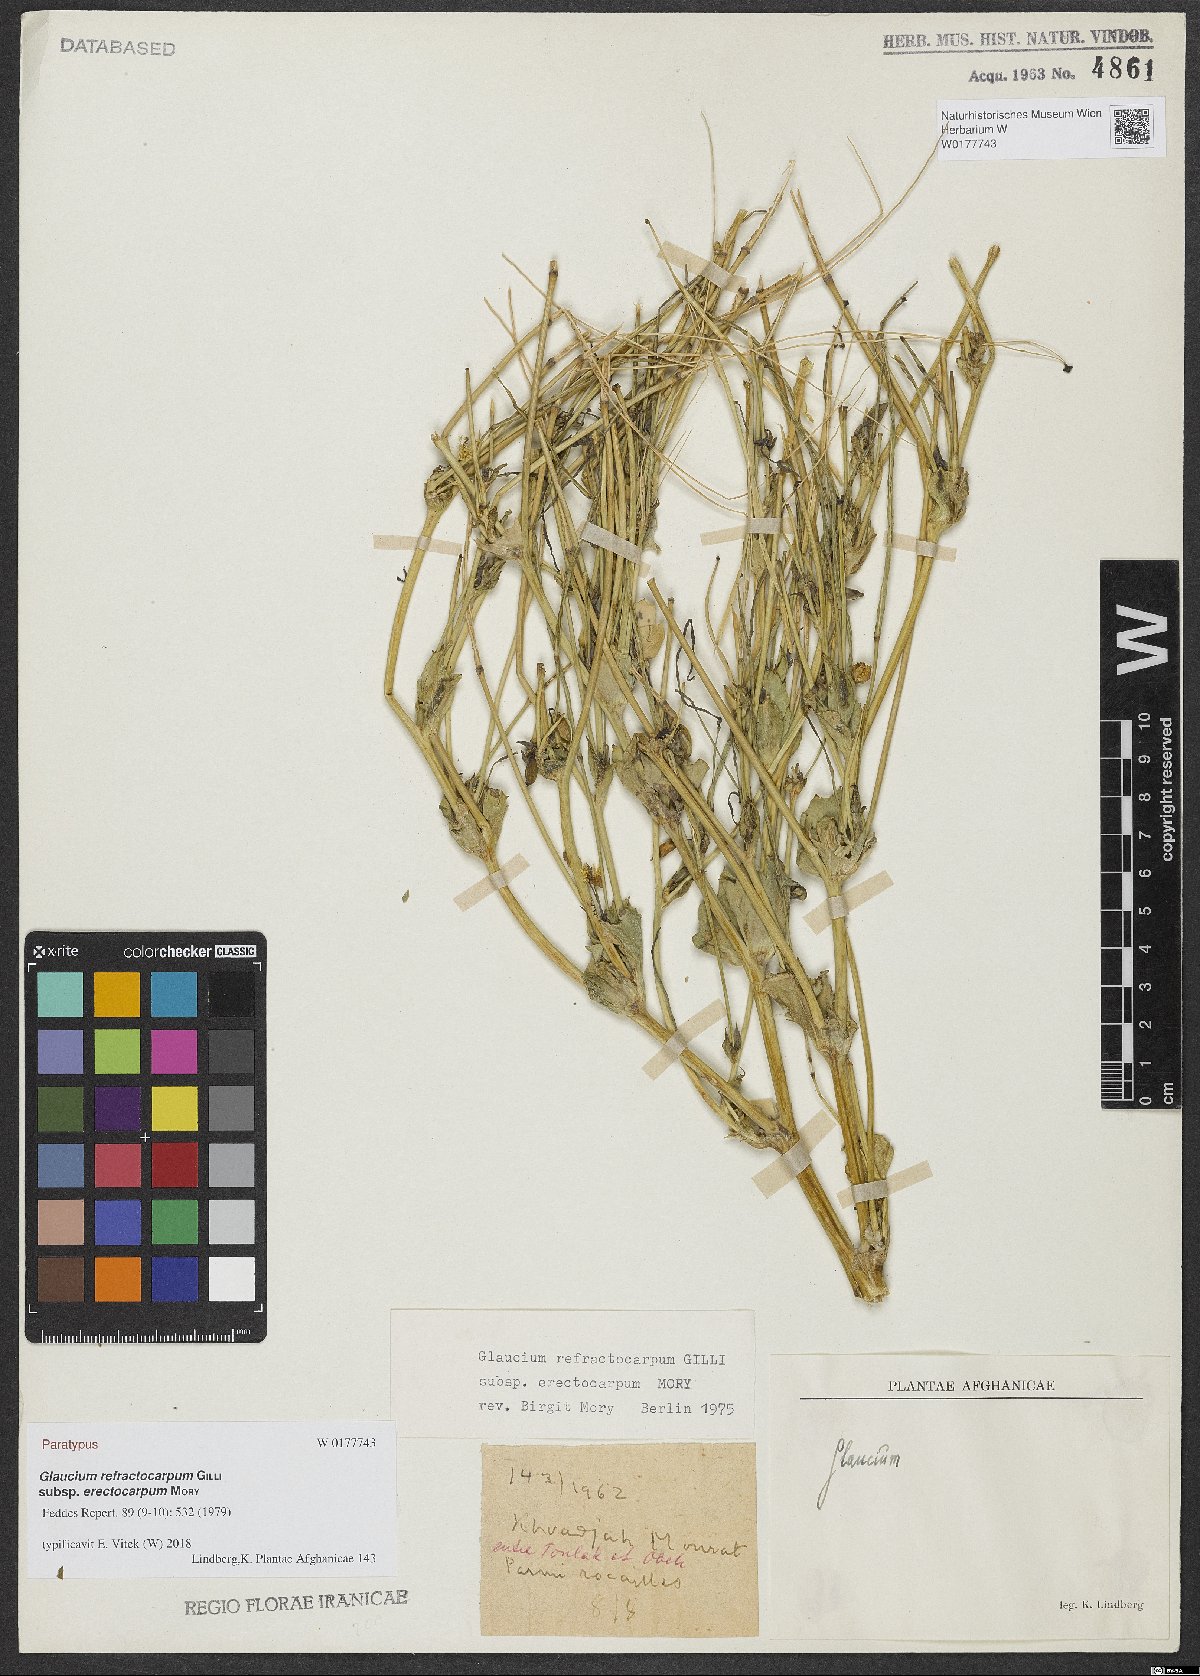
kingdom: Plantae
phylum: Tracheophyta
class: Magnoliopsida
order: Ranunculales
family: Papaveraceae
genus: Glaucium
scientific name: Glaucium refractocarpum
